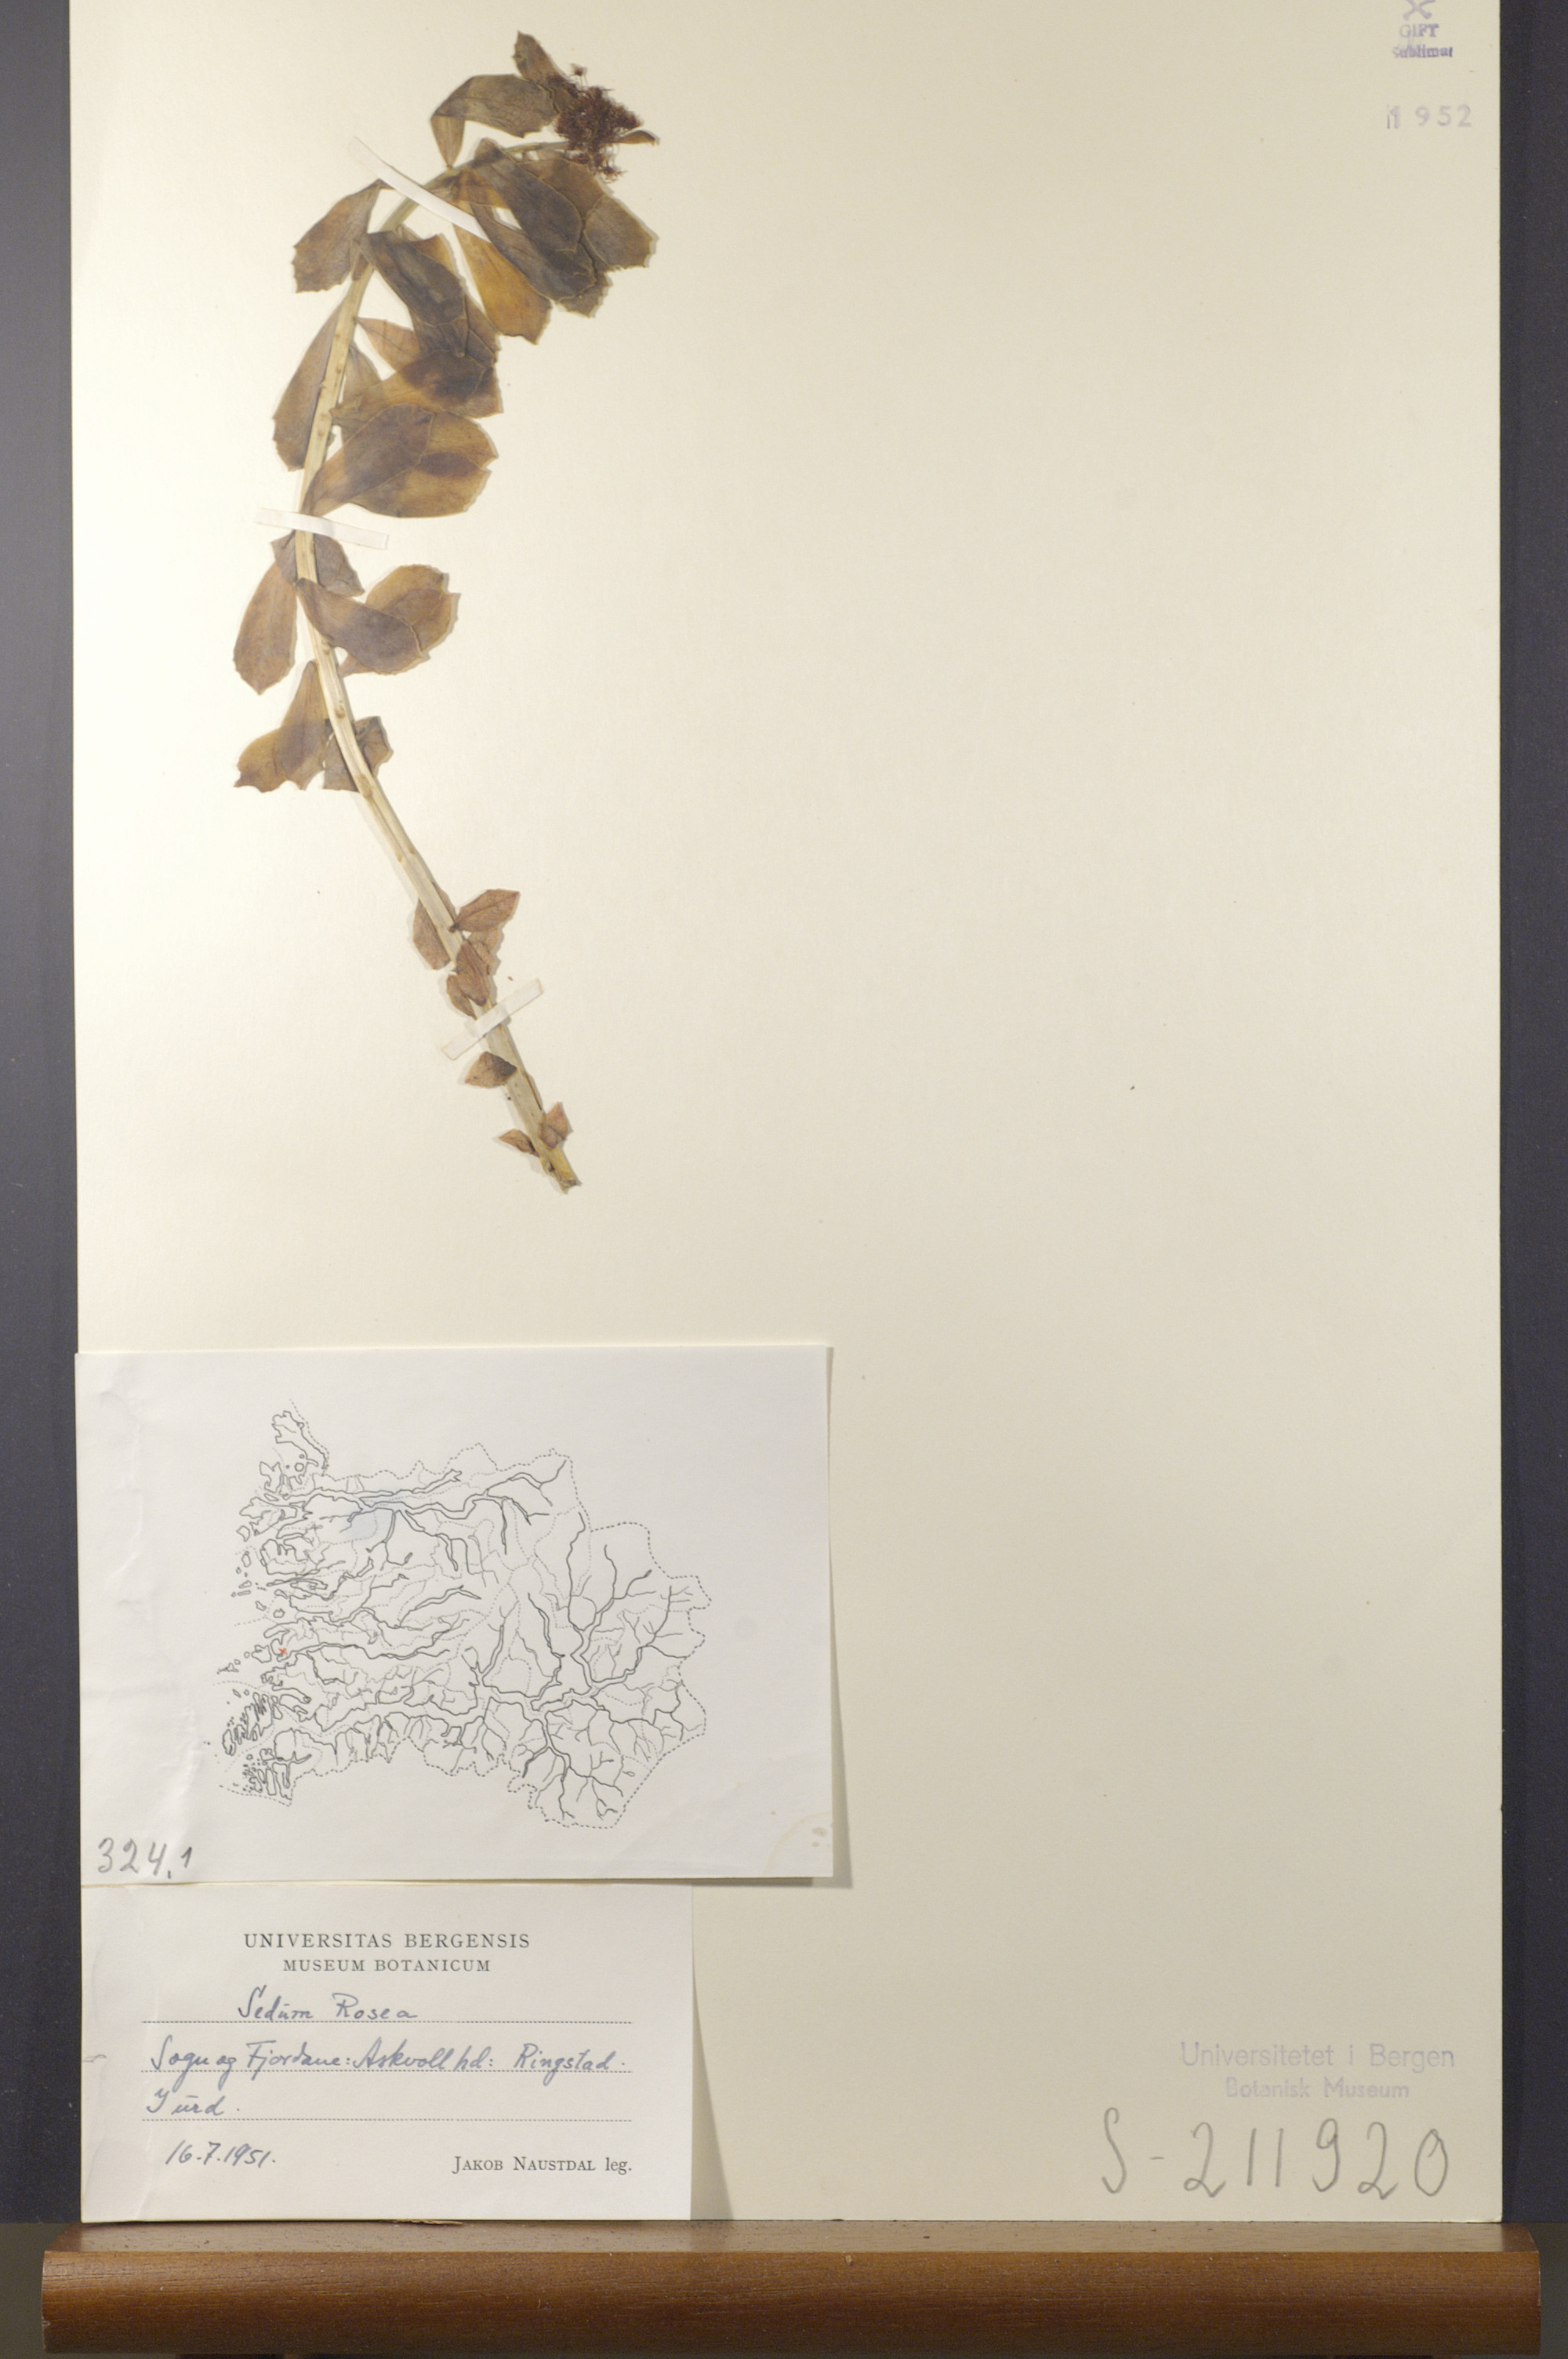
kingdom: Plantae
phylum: Tracheophyta
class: Magnoliopsida
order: Saxifragales
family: Crassulaceae
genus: Rhodiola
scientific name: Rhodiola rosea
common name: Roseroot
